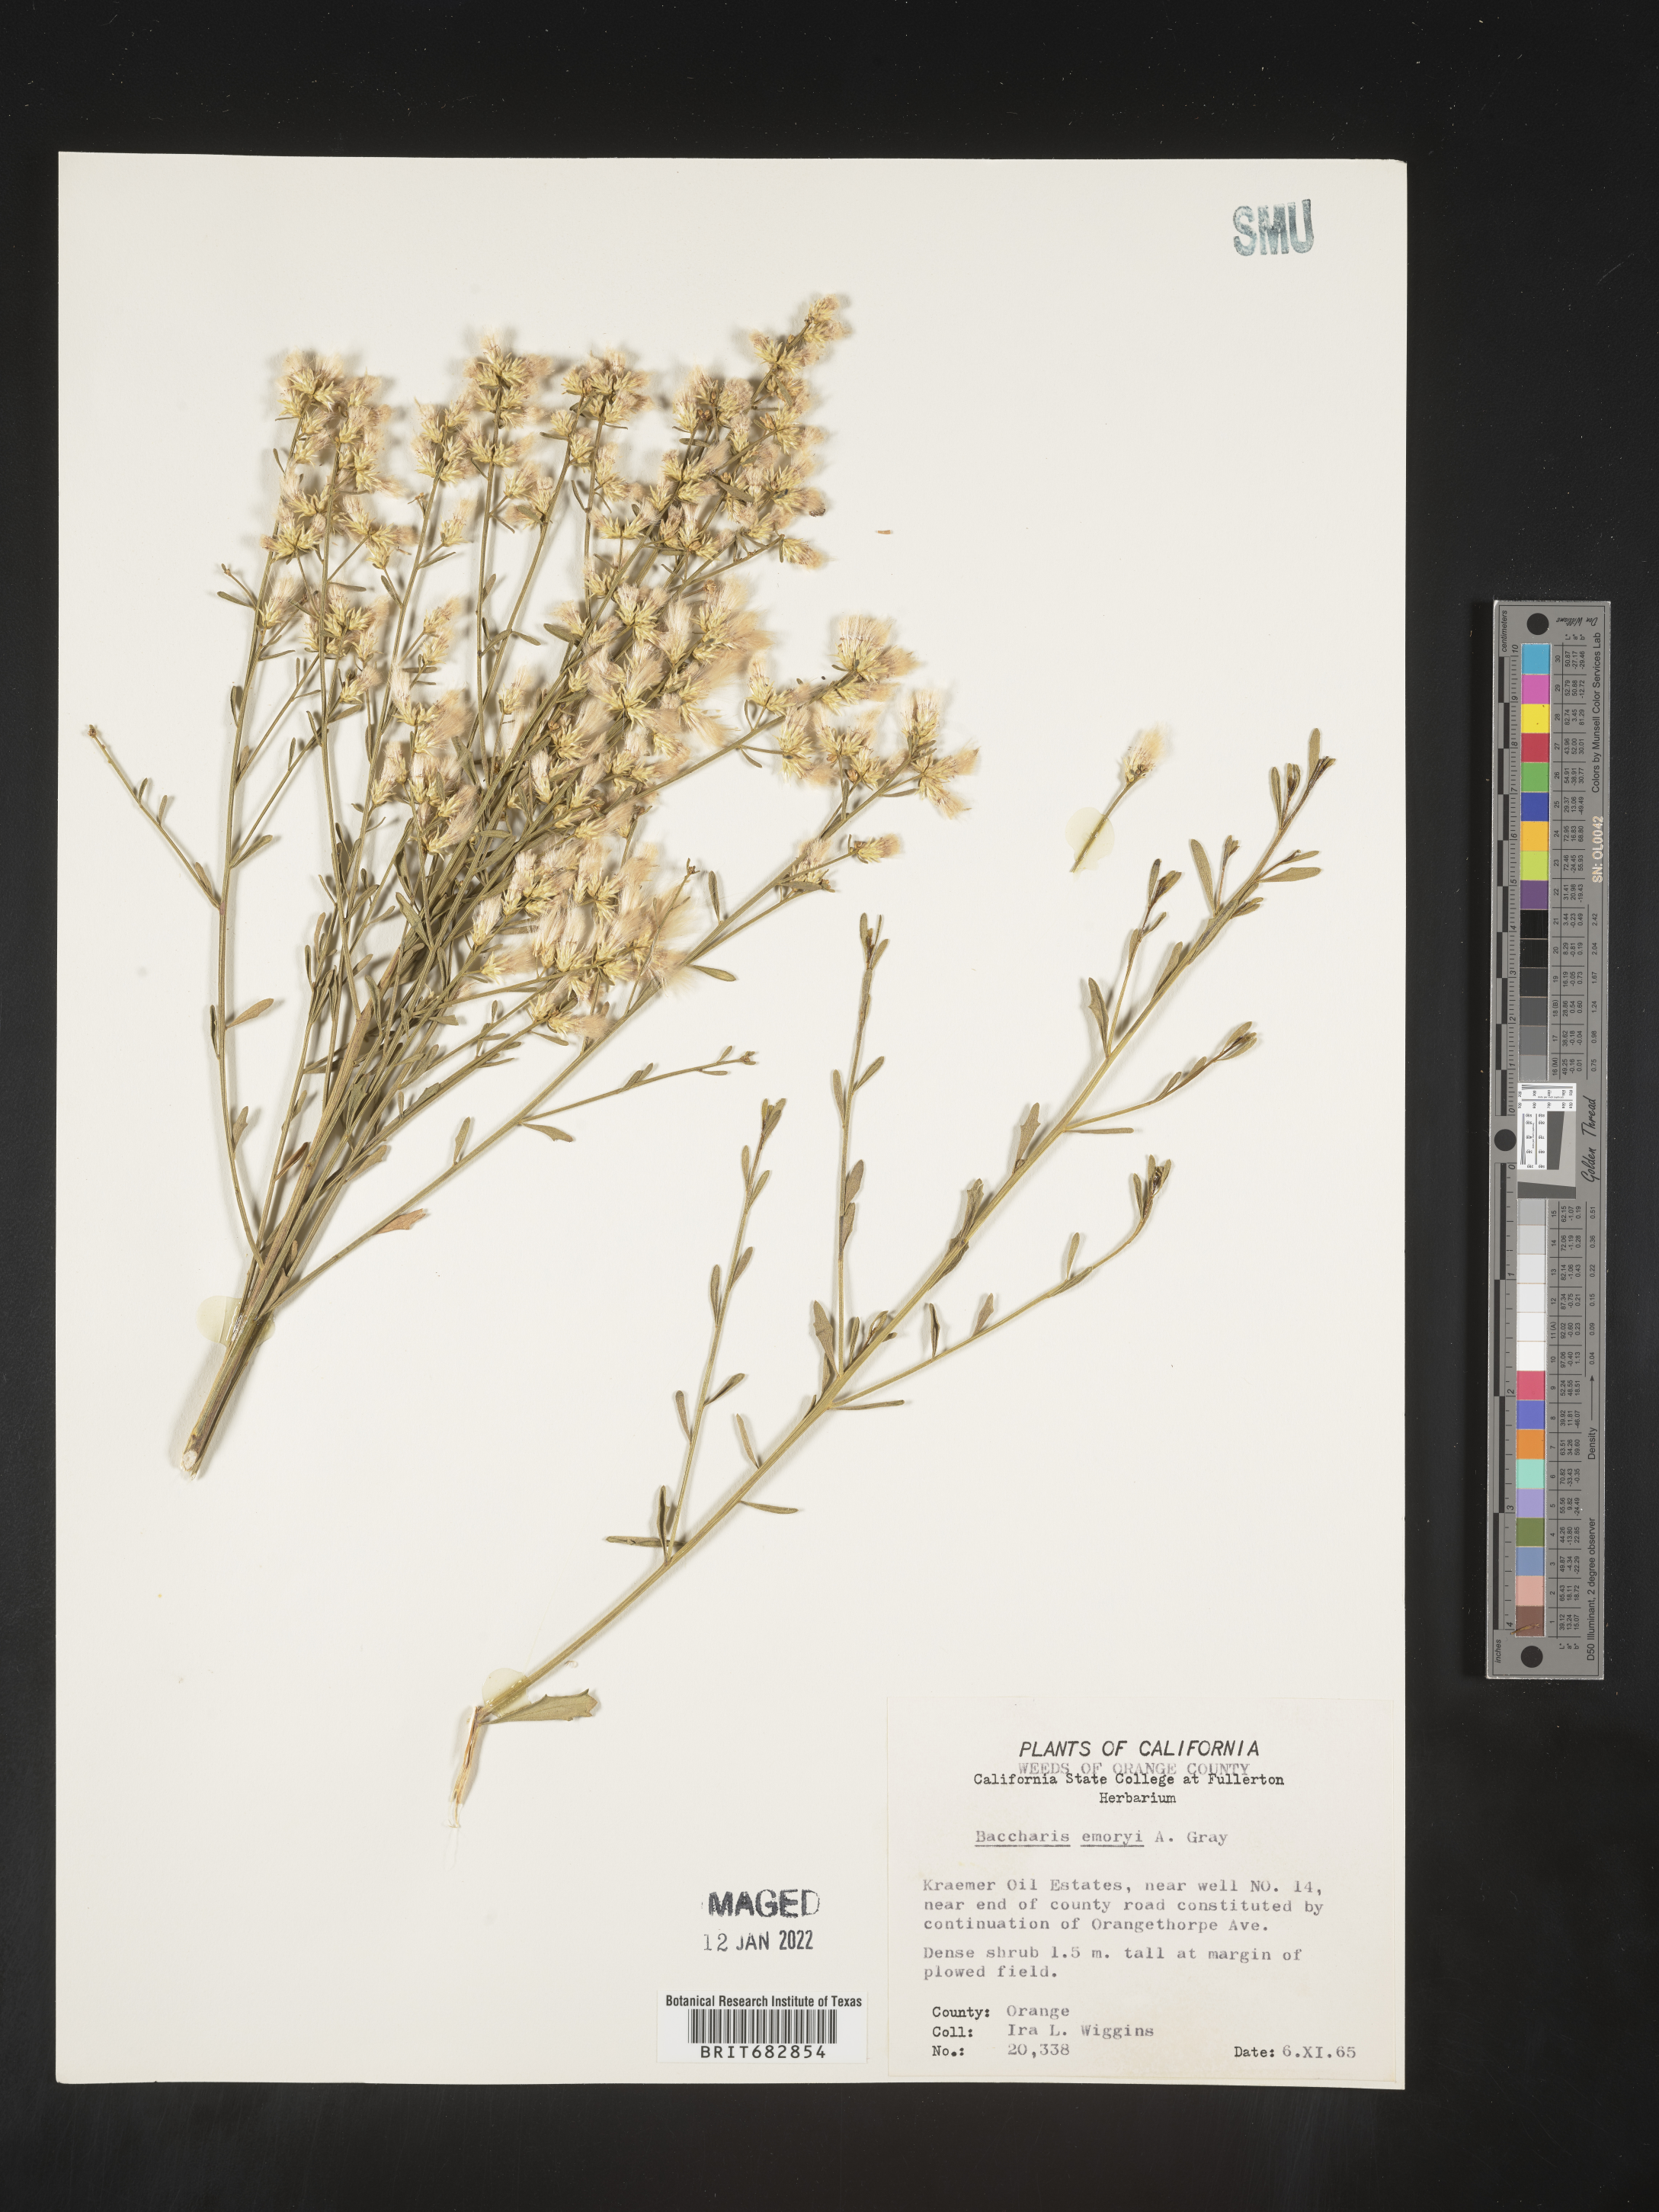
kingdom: Plantae
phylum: Tracheophyta
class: Magnoliopsida
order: Asterales
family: Asteraceae
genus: Baccharis
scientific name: Baccharis salicina
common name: Willow baccharis
